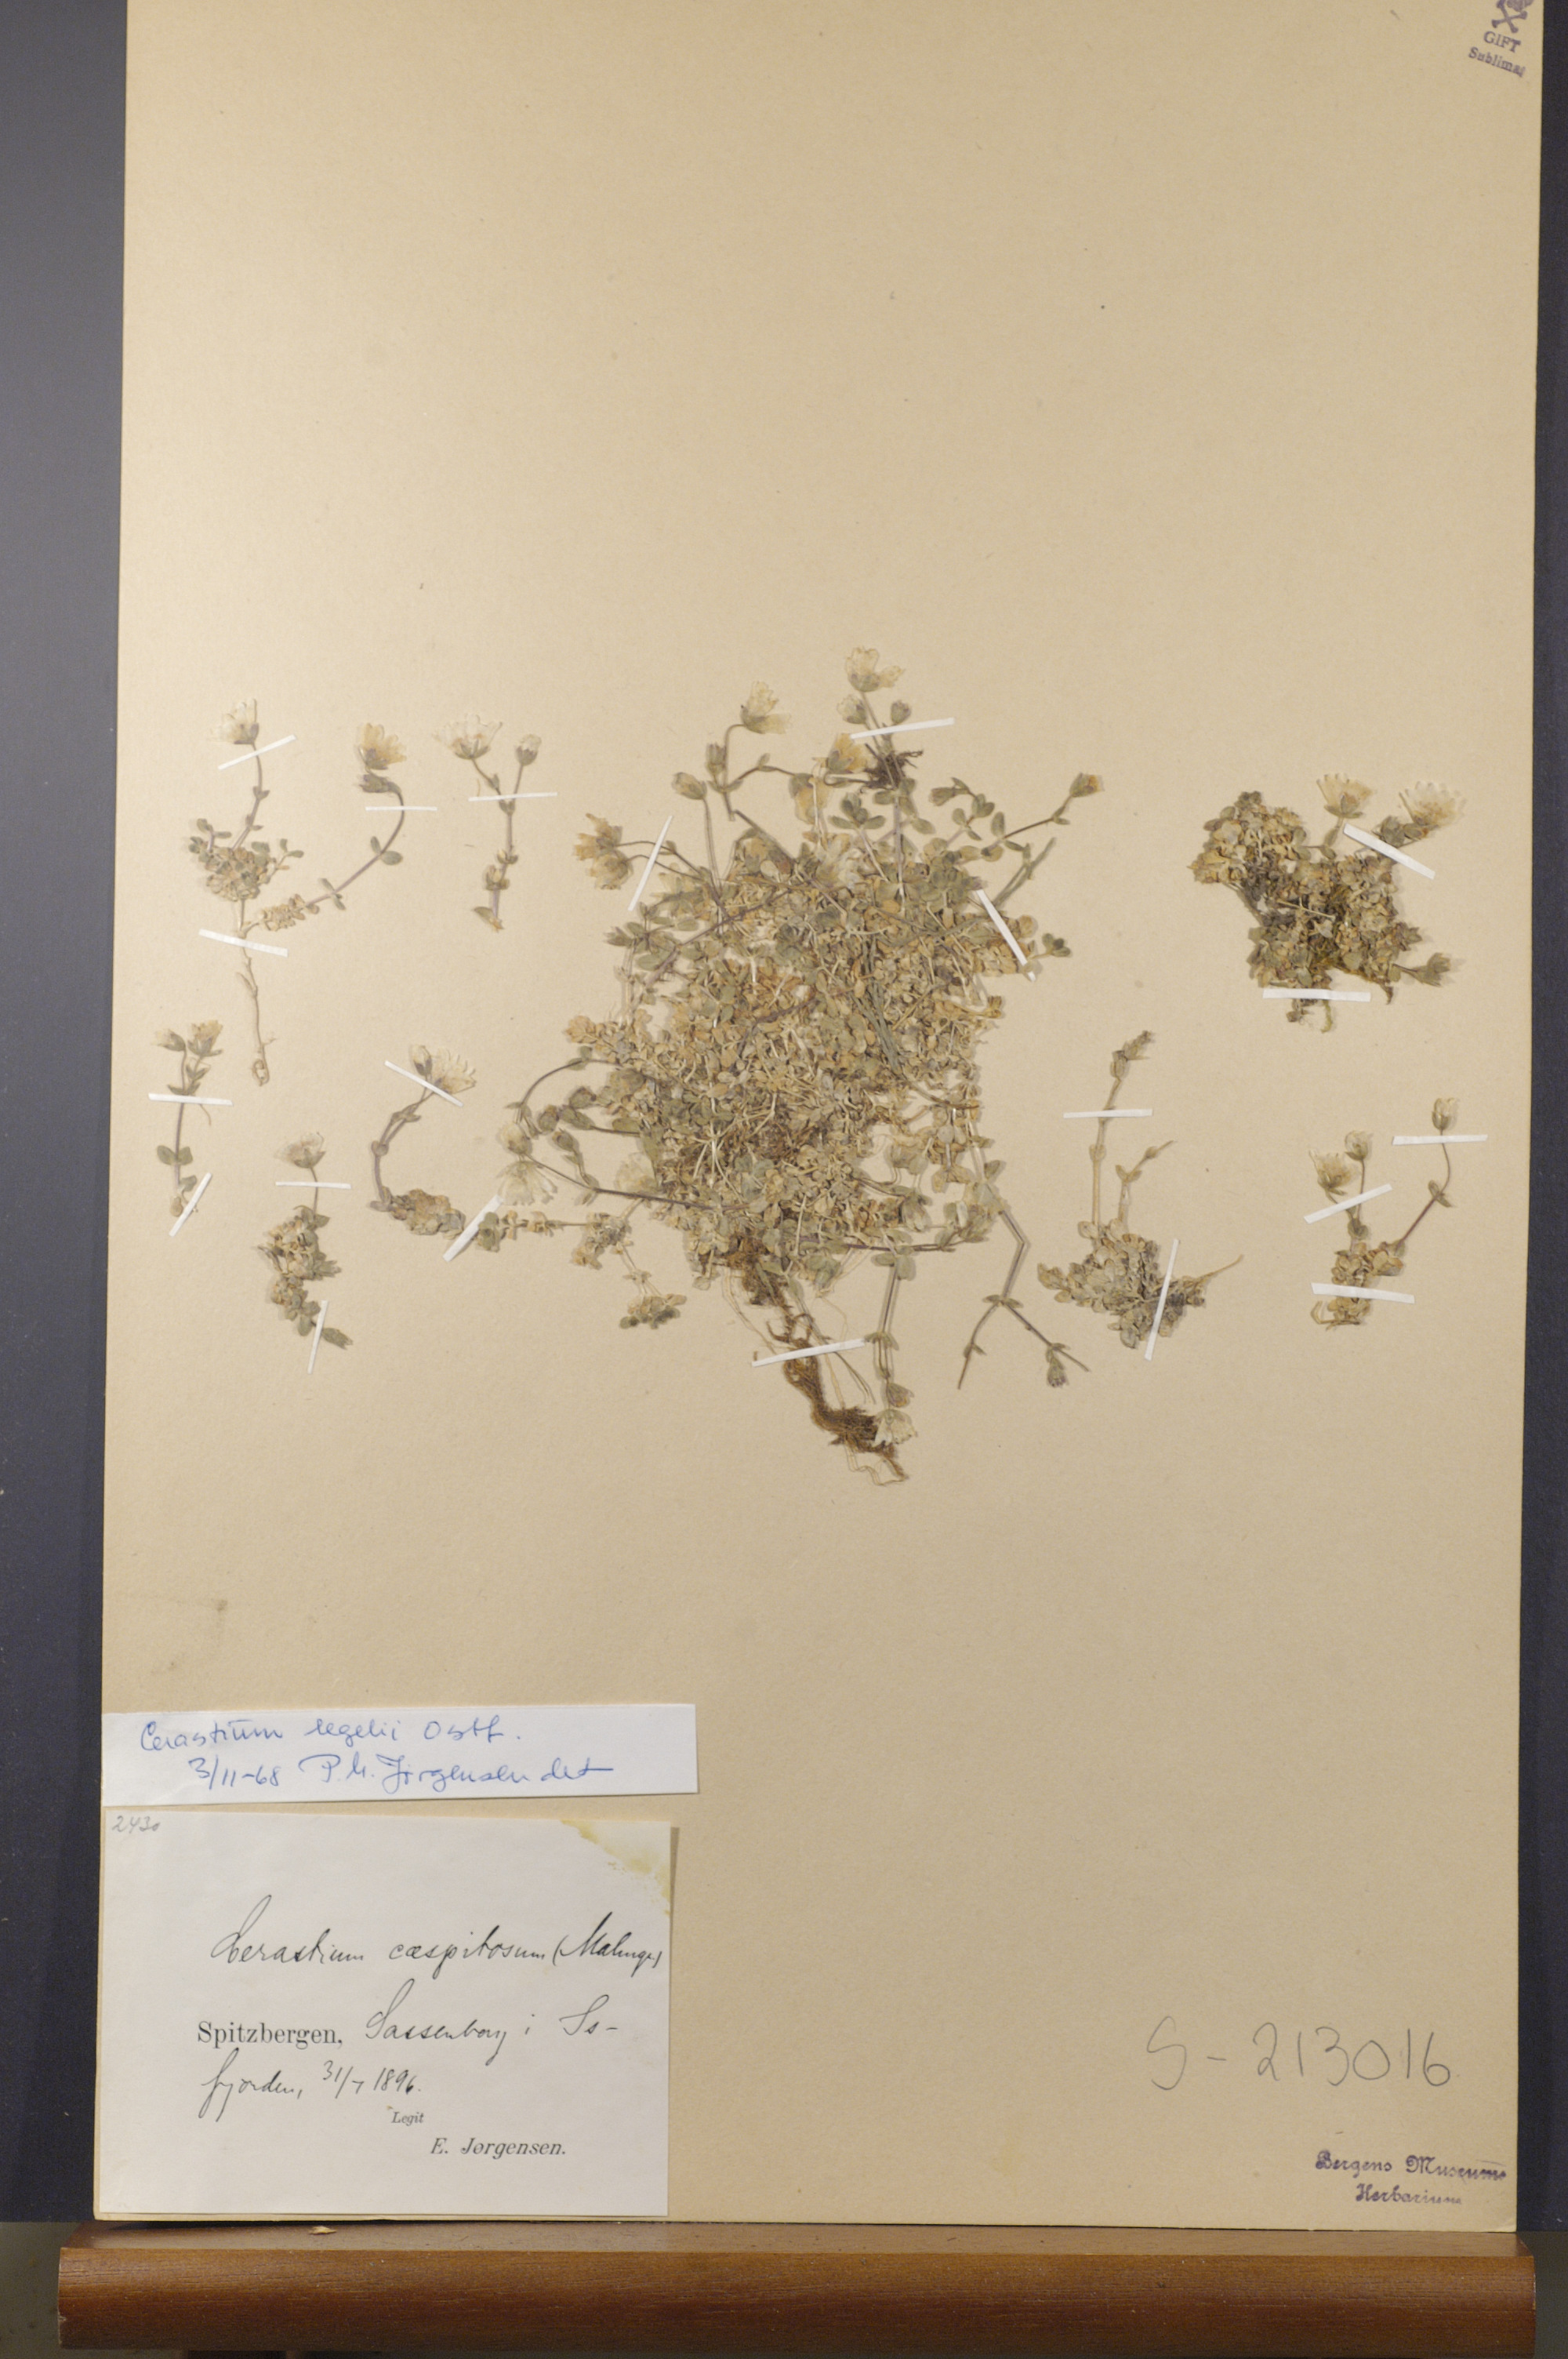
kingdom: Plantae
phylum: Tracheophyta
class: Magnoliopsida
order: Caryophyllales
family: Caryophyllaceae
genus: Cerastium
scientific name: Cerastium regelii
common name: Regel's chickweed
